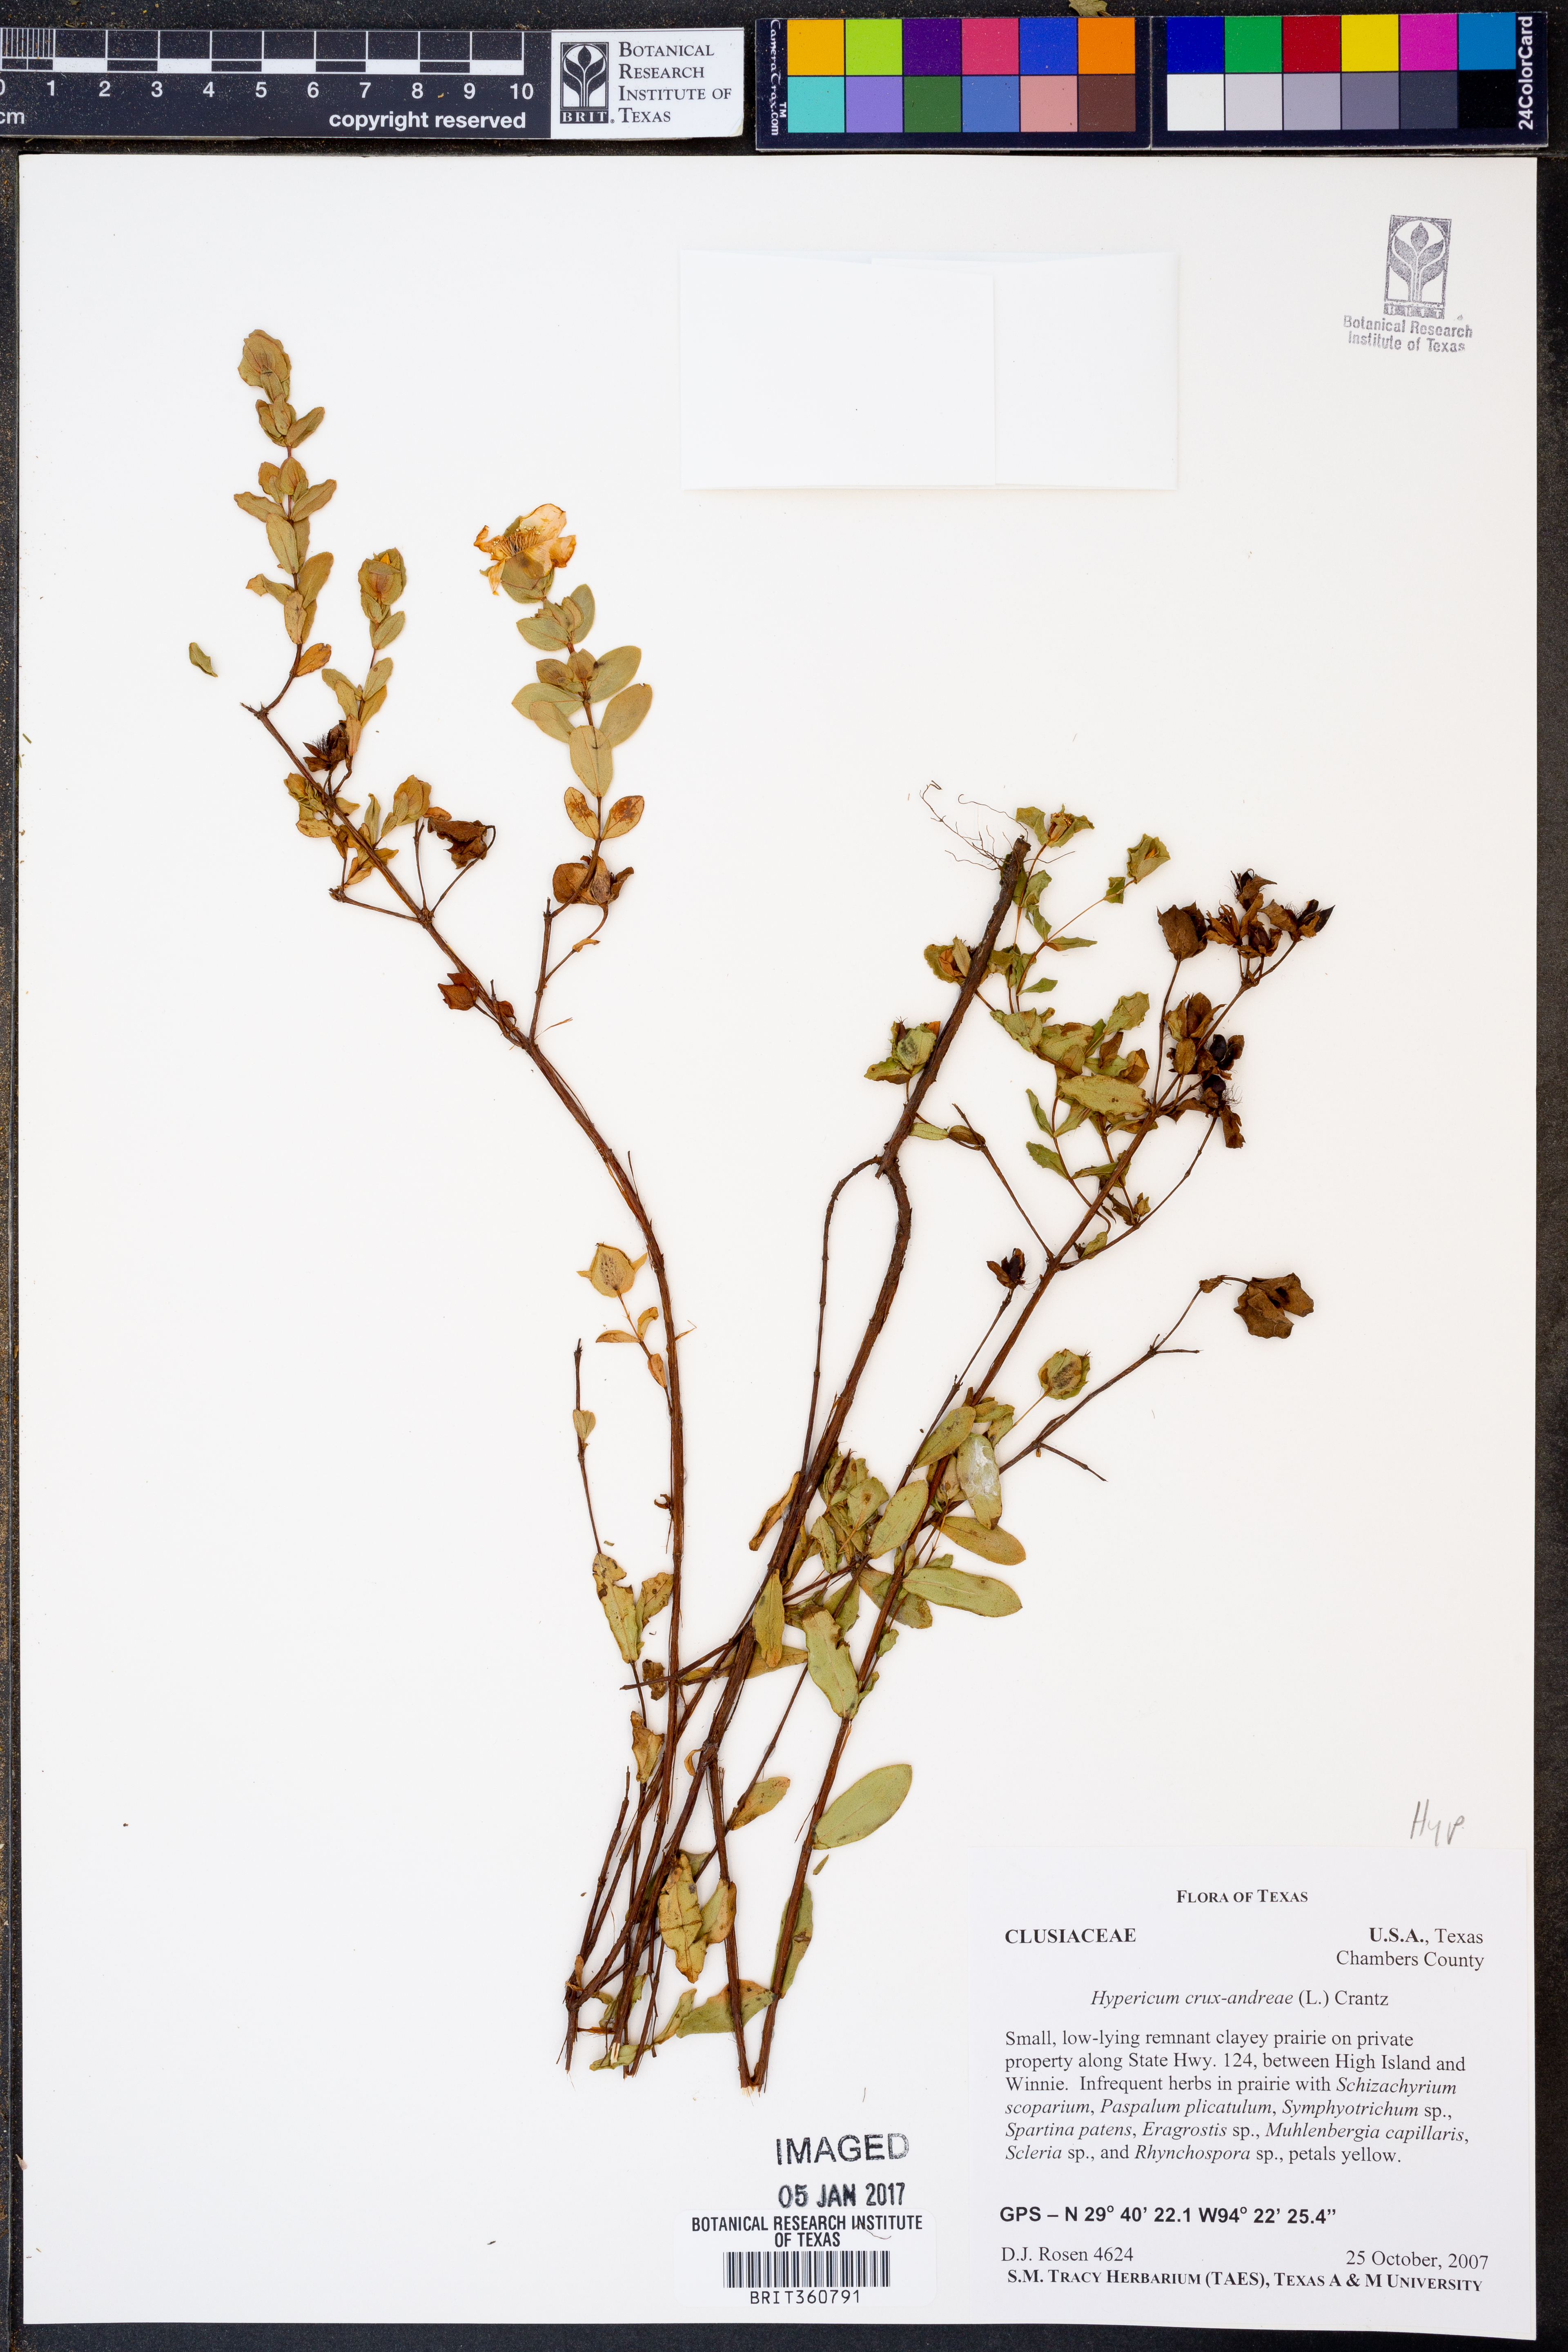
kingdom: Plantae
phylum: Tracheophyta
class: Magnoliopsida
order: Malpighiales
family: Hypericaceae
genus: Hypericum
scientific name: Hypericum crux-andreae
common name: St.-peter's-wort
